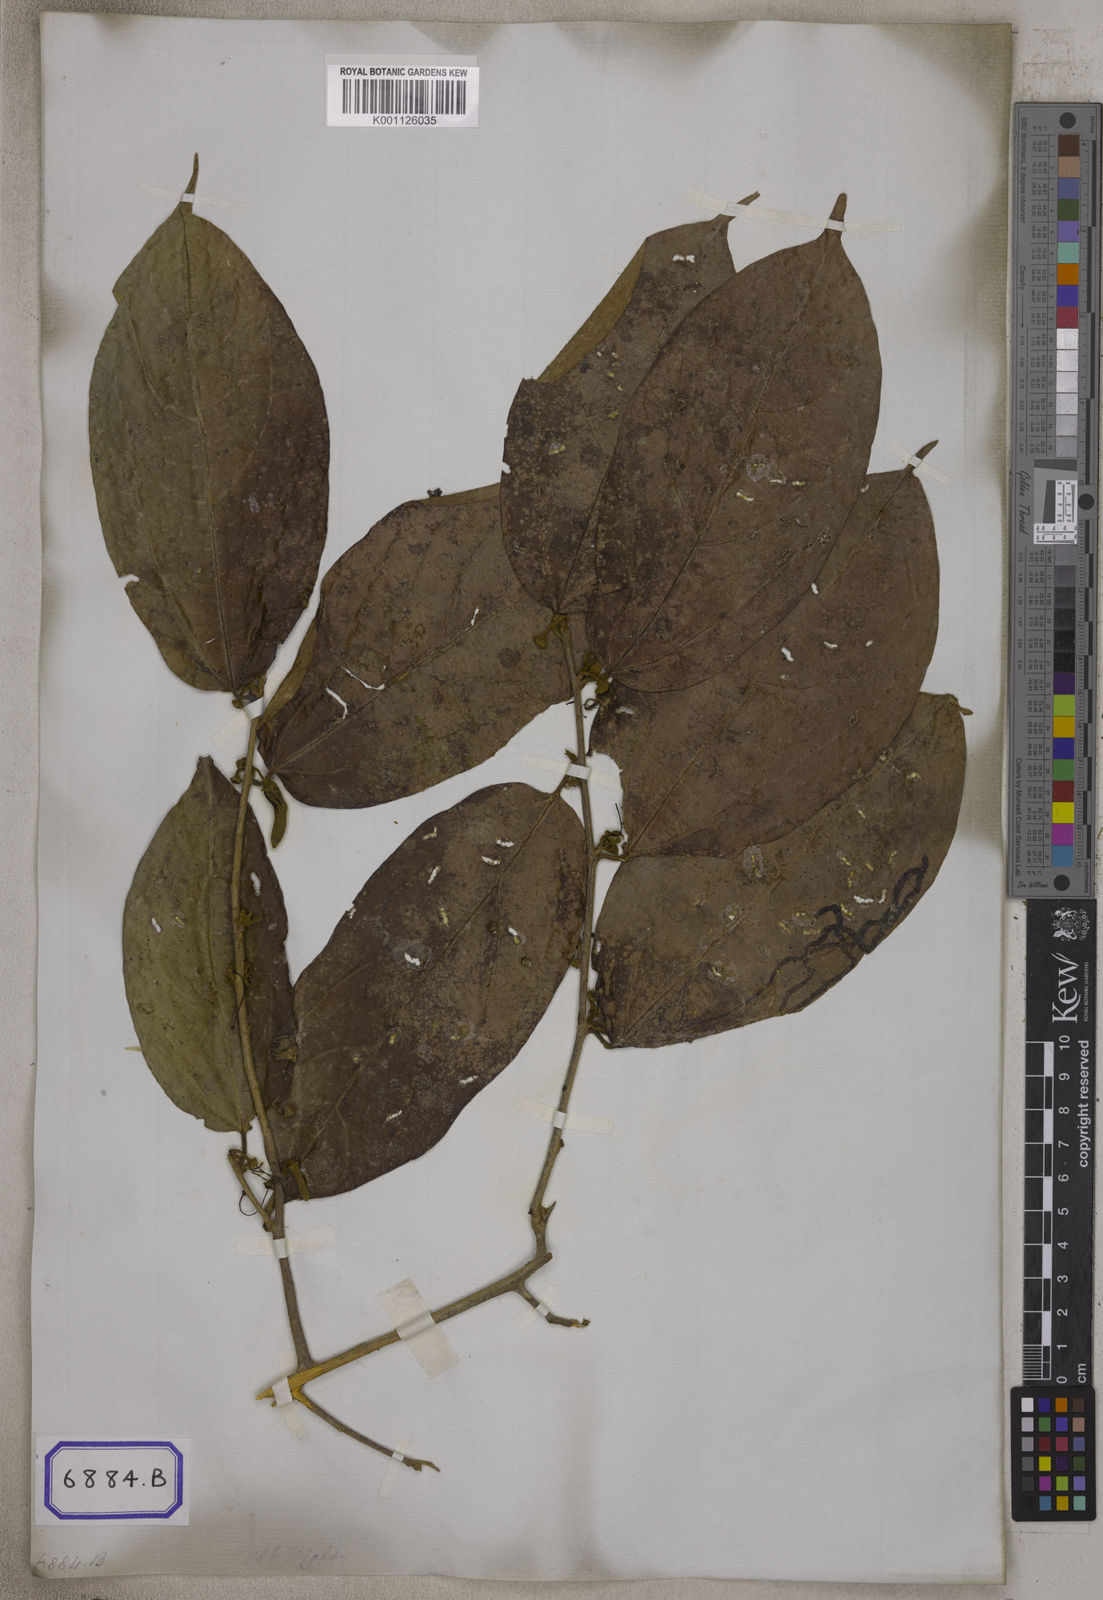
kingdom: Plantae
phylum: Tracheophyta
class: Magnoliopsida
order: Cornales
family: Cornaceae
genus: Alangium
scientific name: Alangium hexapetalum
